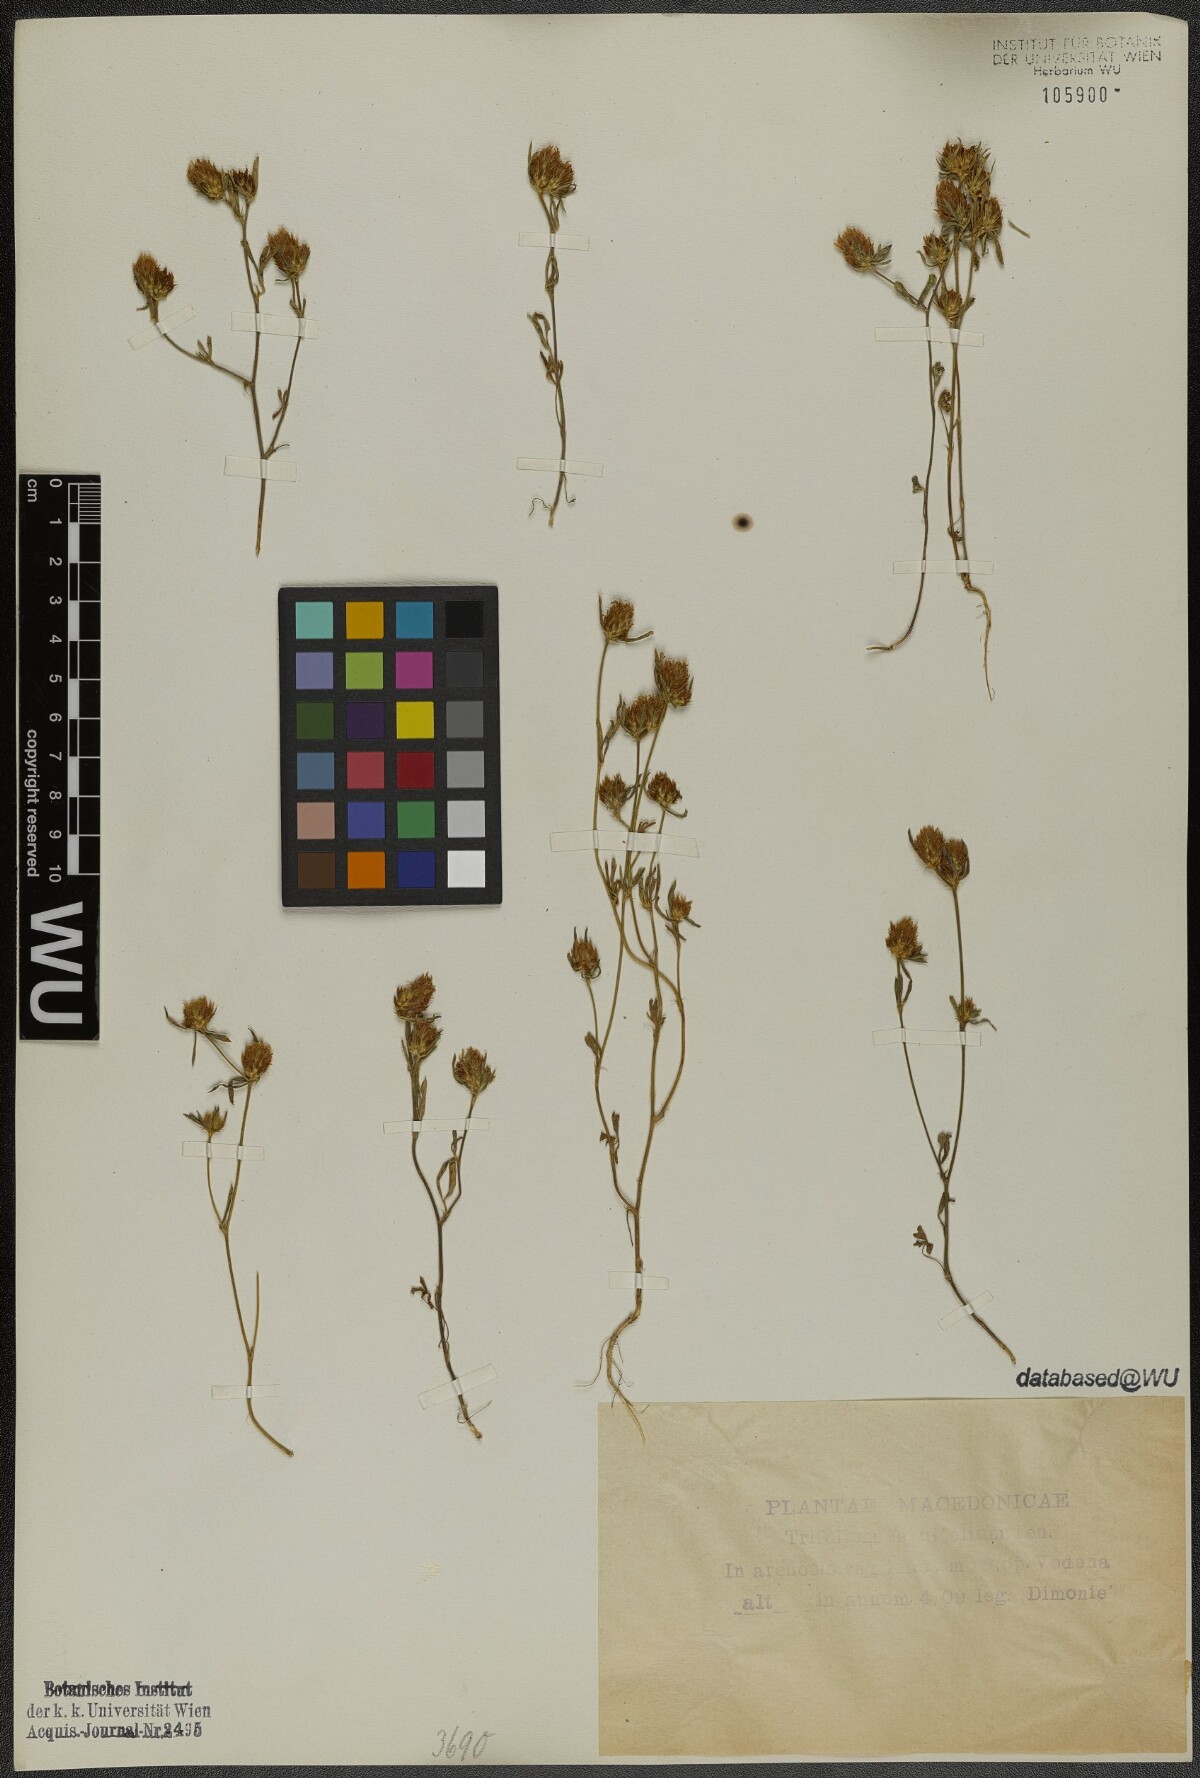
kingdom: Plantae
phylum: Tracheophyta
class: Magnoliopsida
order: Fabales
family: Fabaceae
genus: Trifolium
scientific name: Trifolium tenuifolium
